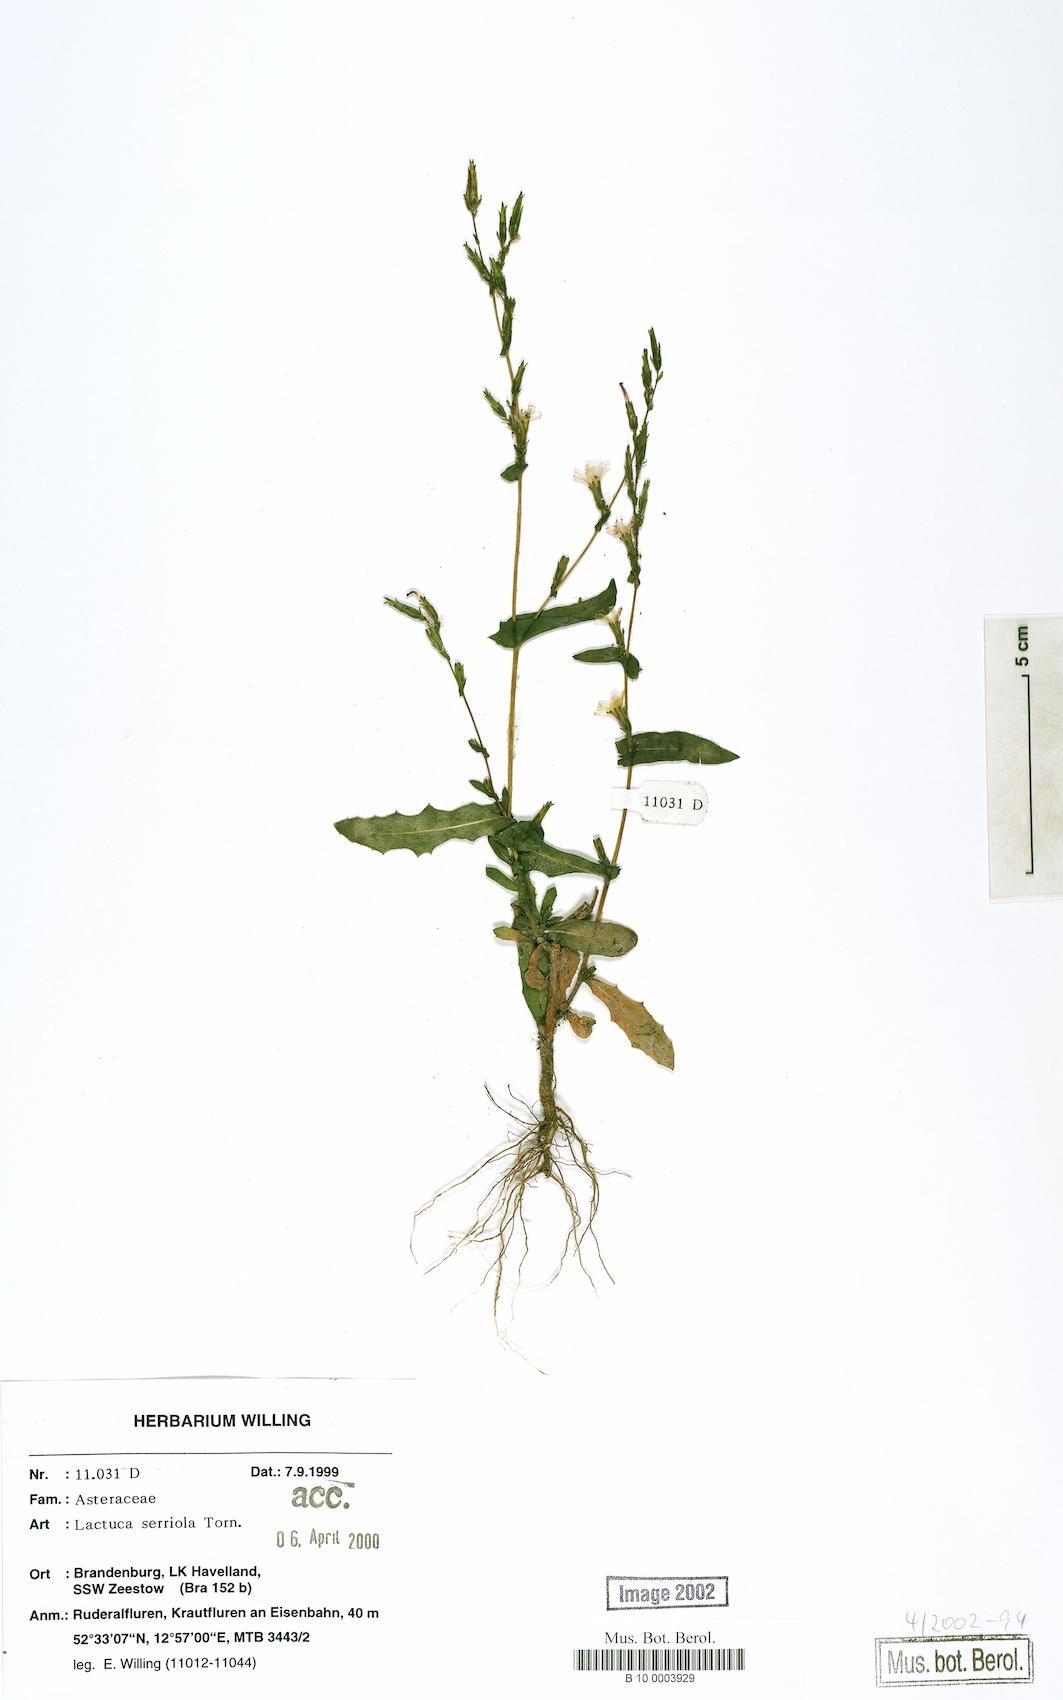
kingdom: Plantae
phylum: Tracheophyta
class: Magnoliopsida
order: Asterales
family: Asteraceae
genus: Lactuca
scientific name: Lactuca serriola
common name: Prickly lettuce
